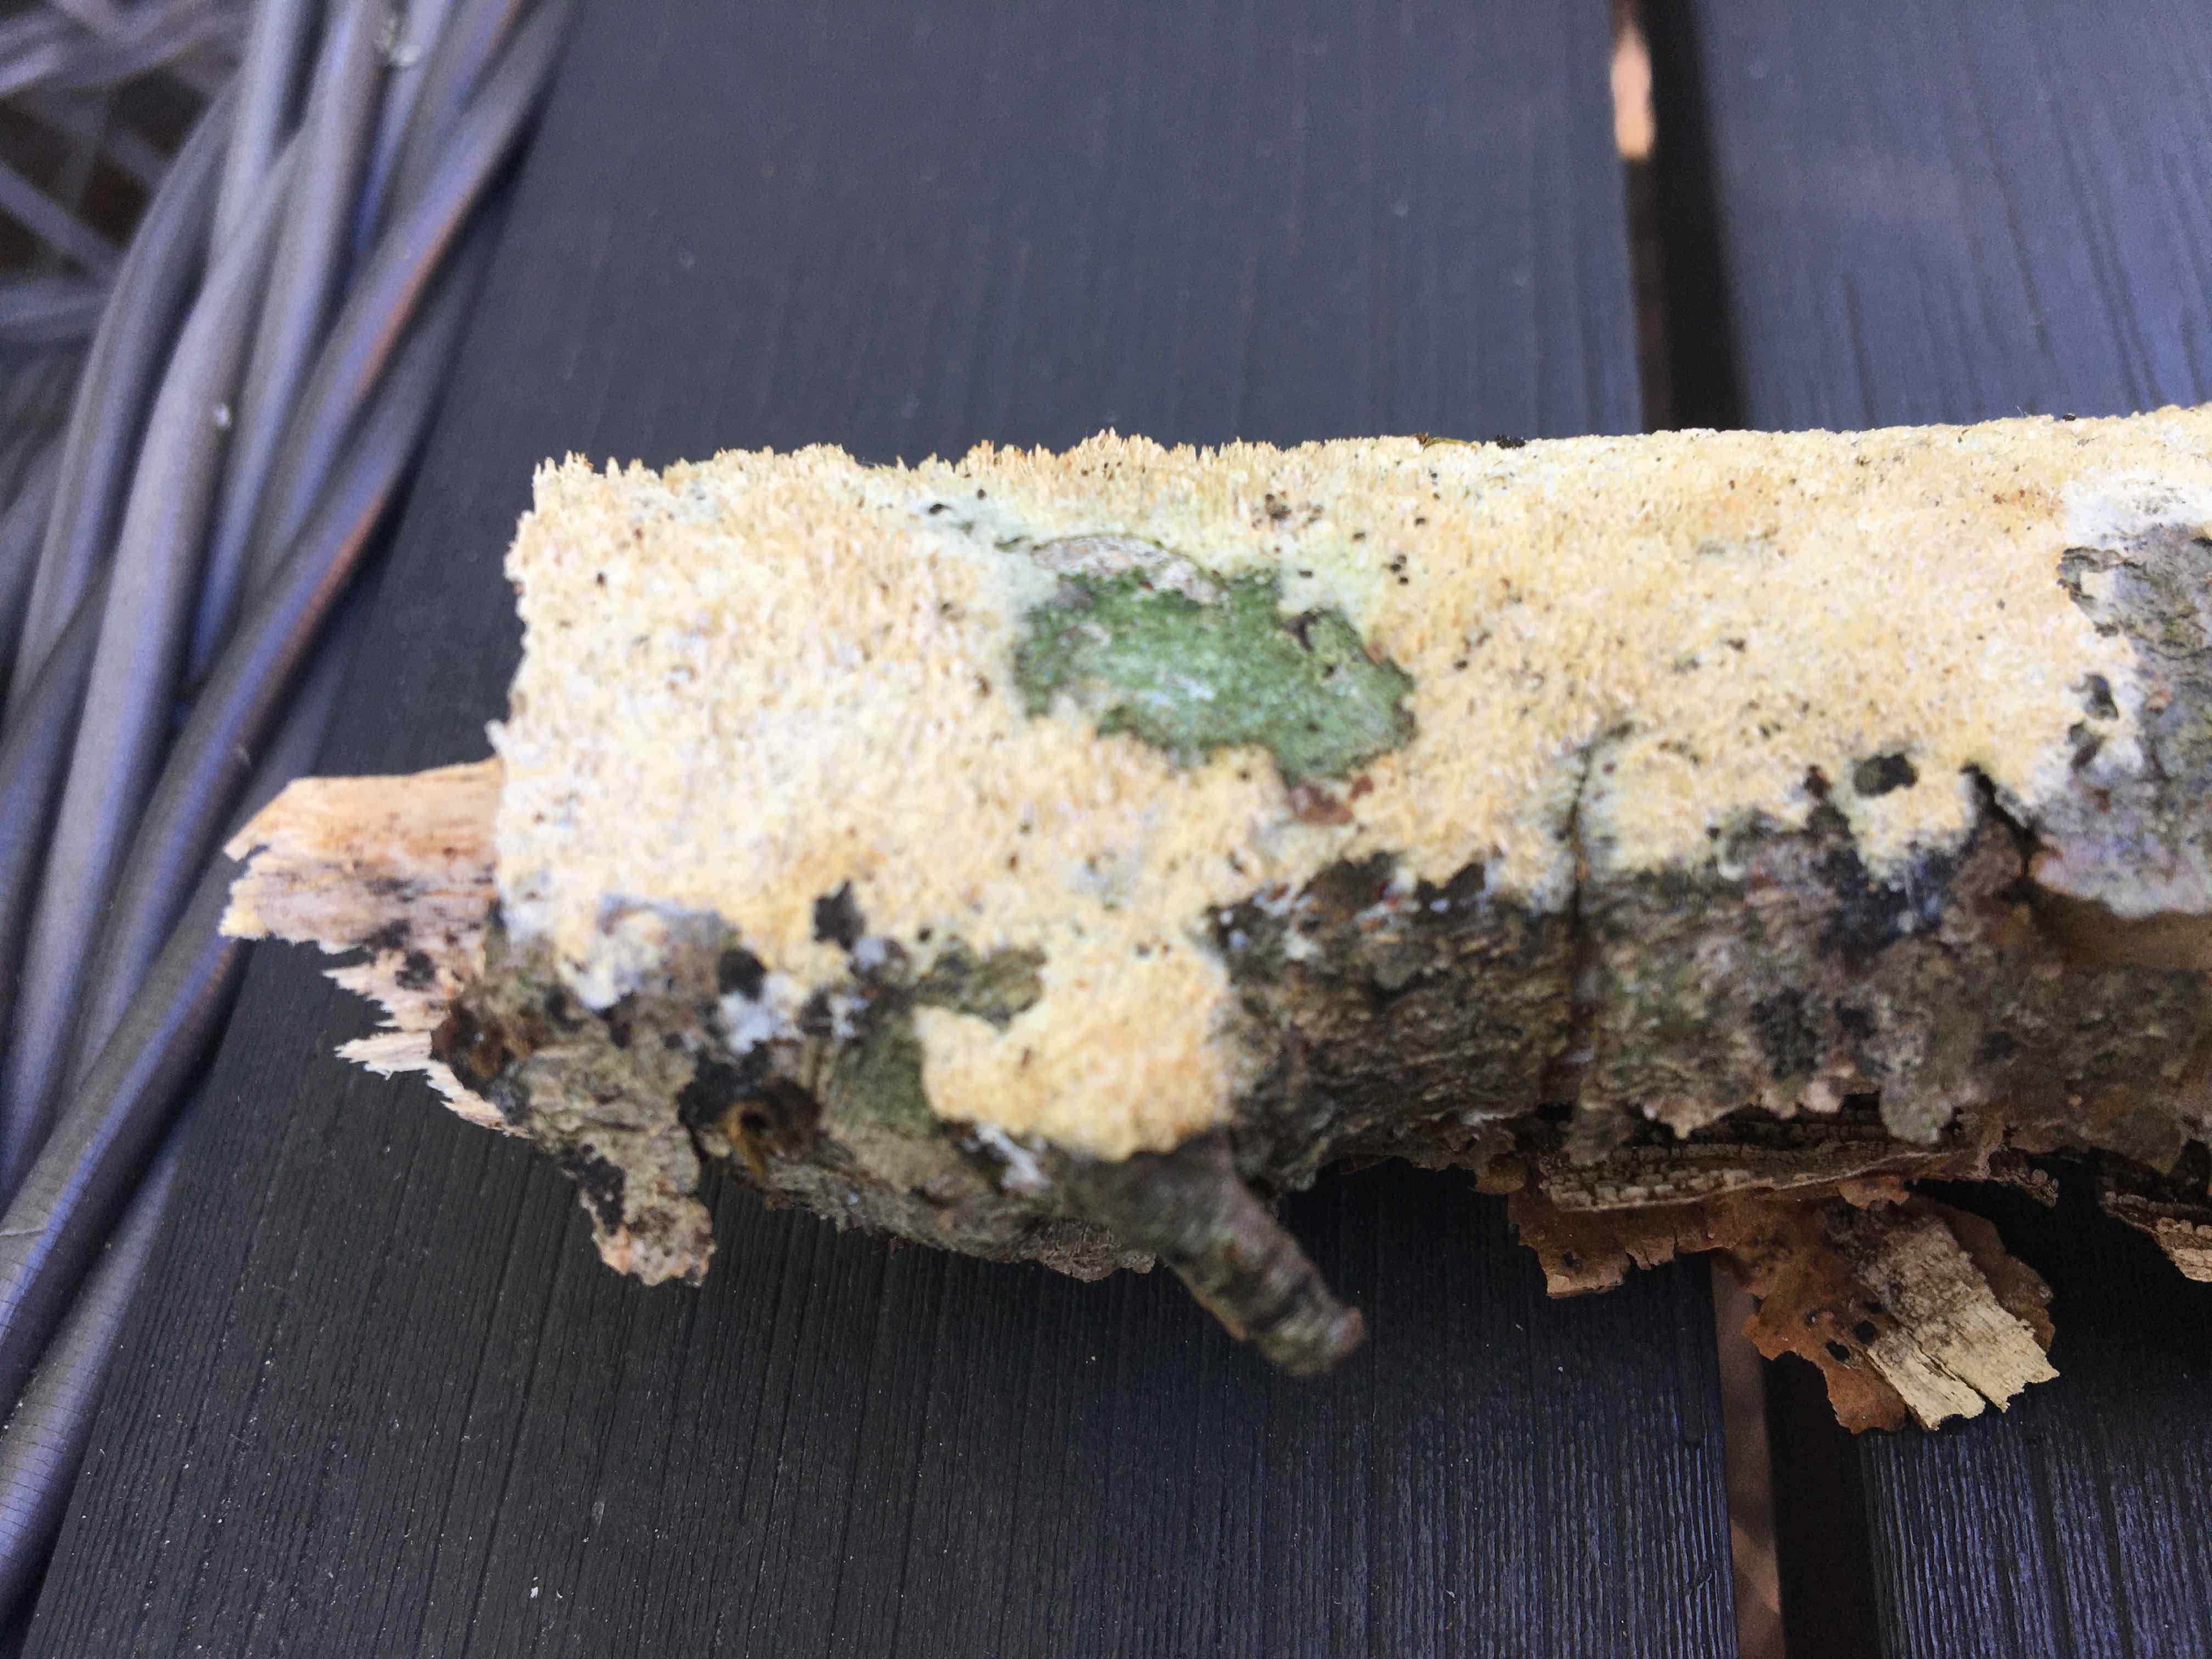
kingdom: Fungi
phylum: Basidiomycota
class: Agaricomycetes
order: Hymenochaetales
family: Schizoporaceae
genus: Xylodon
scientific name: Xylodon
